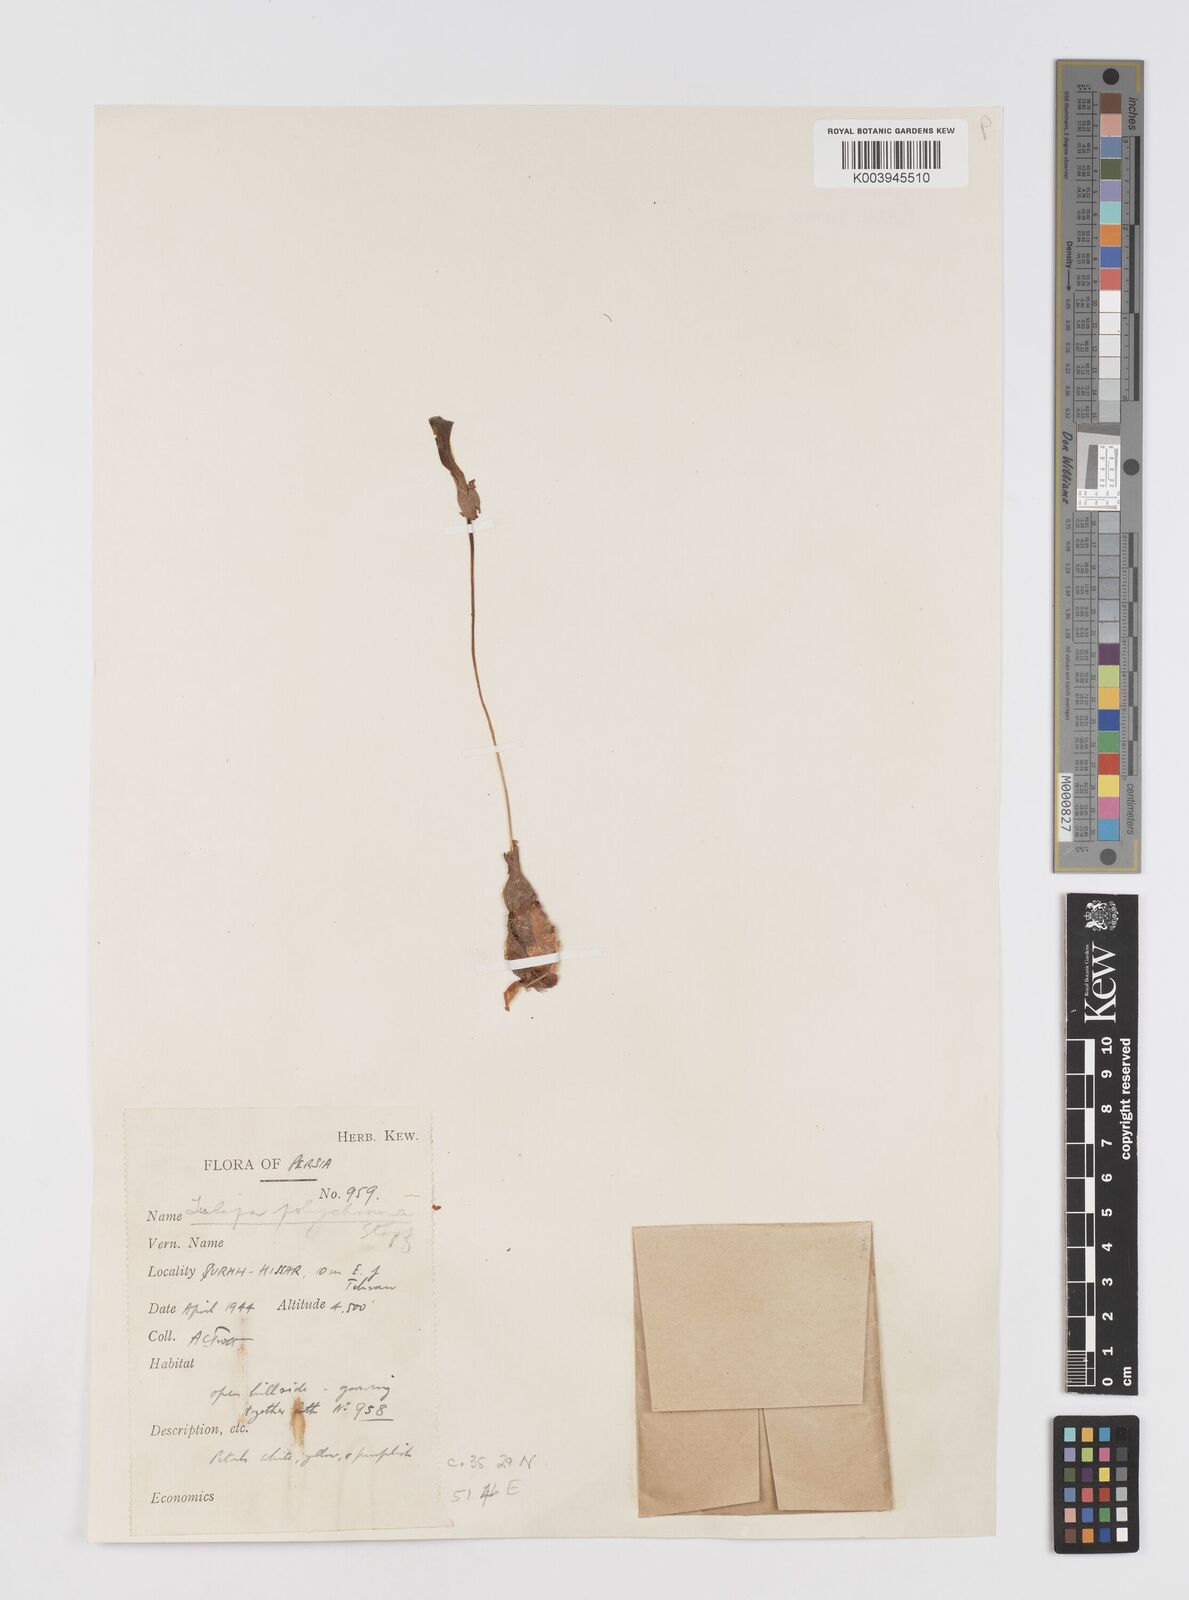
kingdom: Plantae
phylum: Tracheophyta
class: Liliopsida
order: Liliales
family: Liliaceae
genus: Tulipa
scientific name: Tulipa biflora
